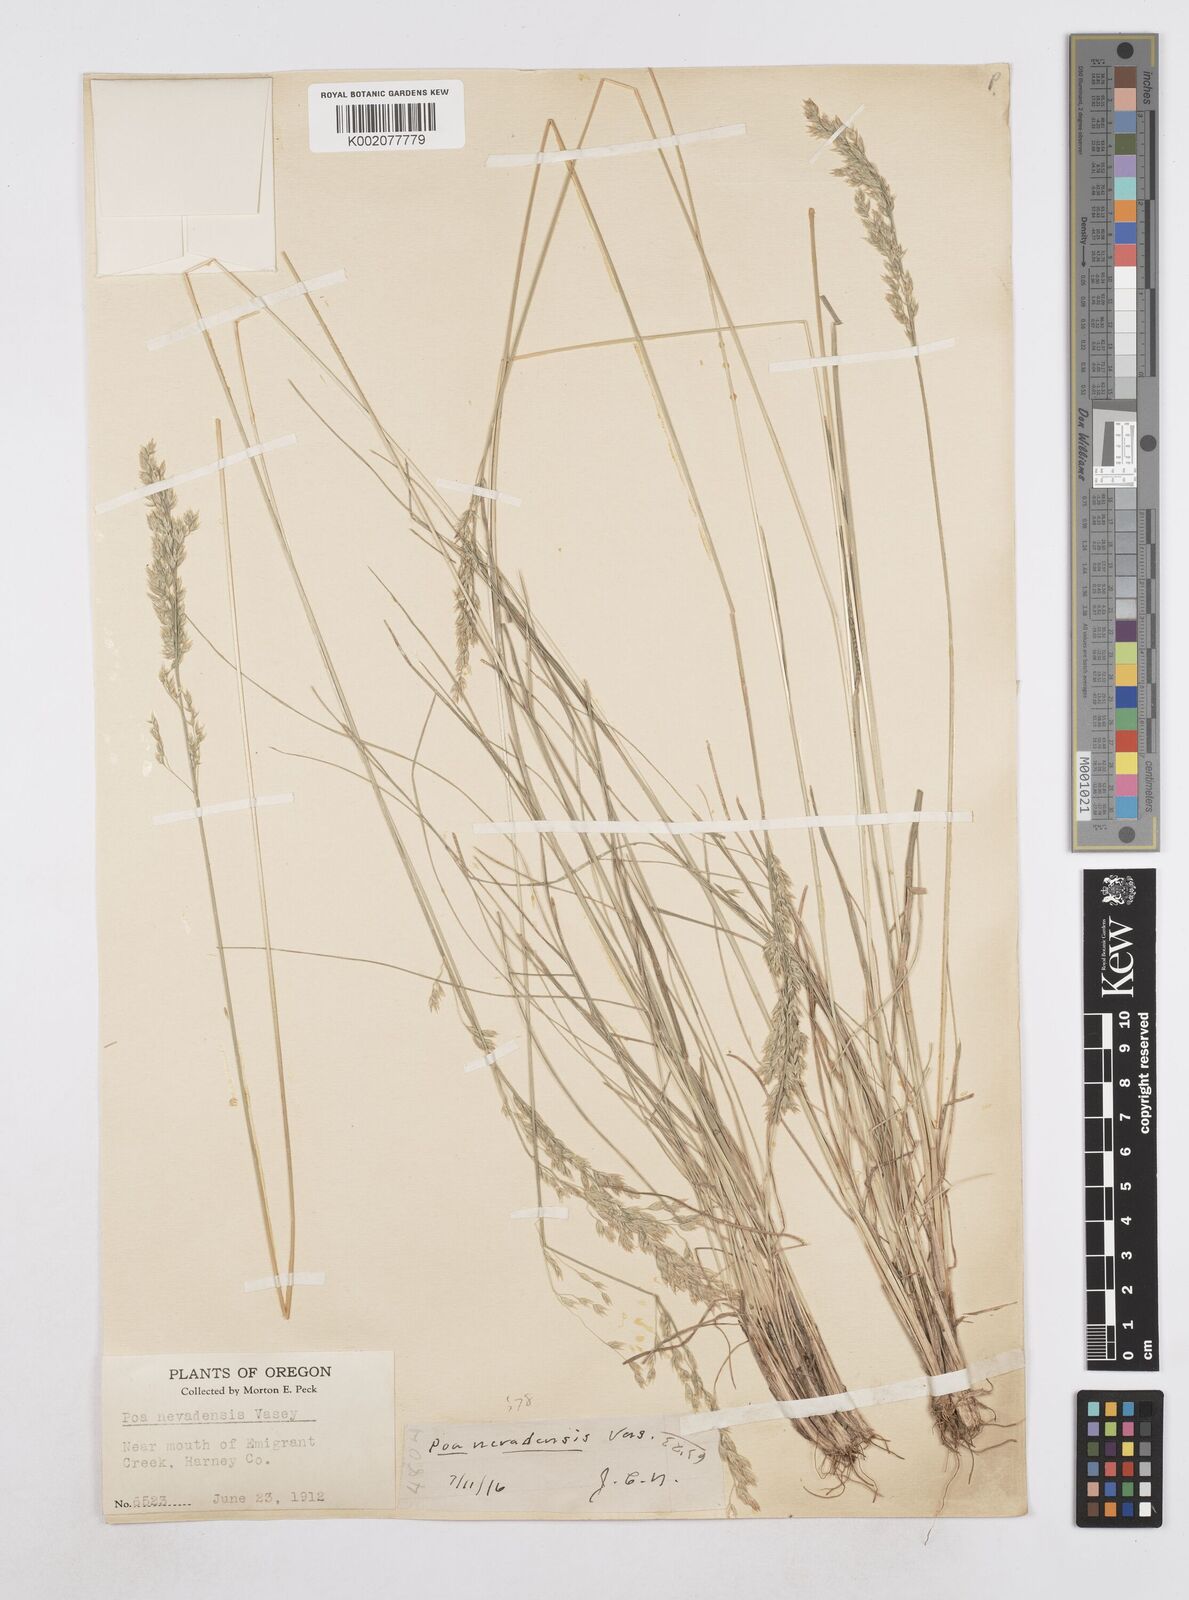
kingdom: Plantae
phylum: Tracheophyta
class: Liliopsida
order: Poales
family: Poaceae
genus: Poa
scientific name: Poa secunda
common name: Sandberg bluegrass
